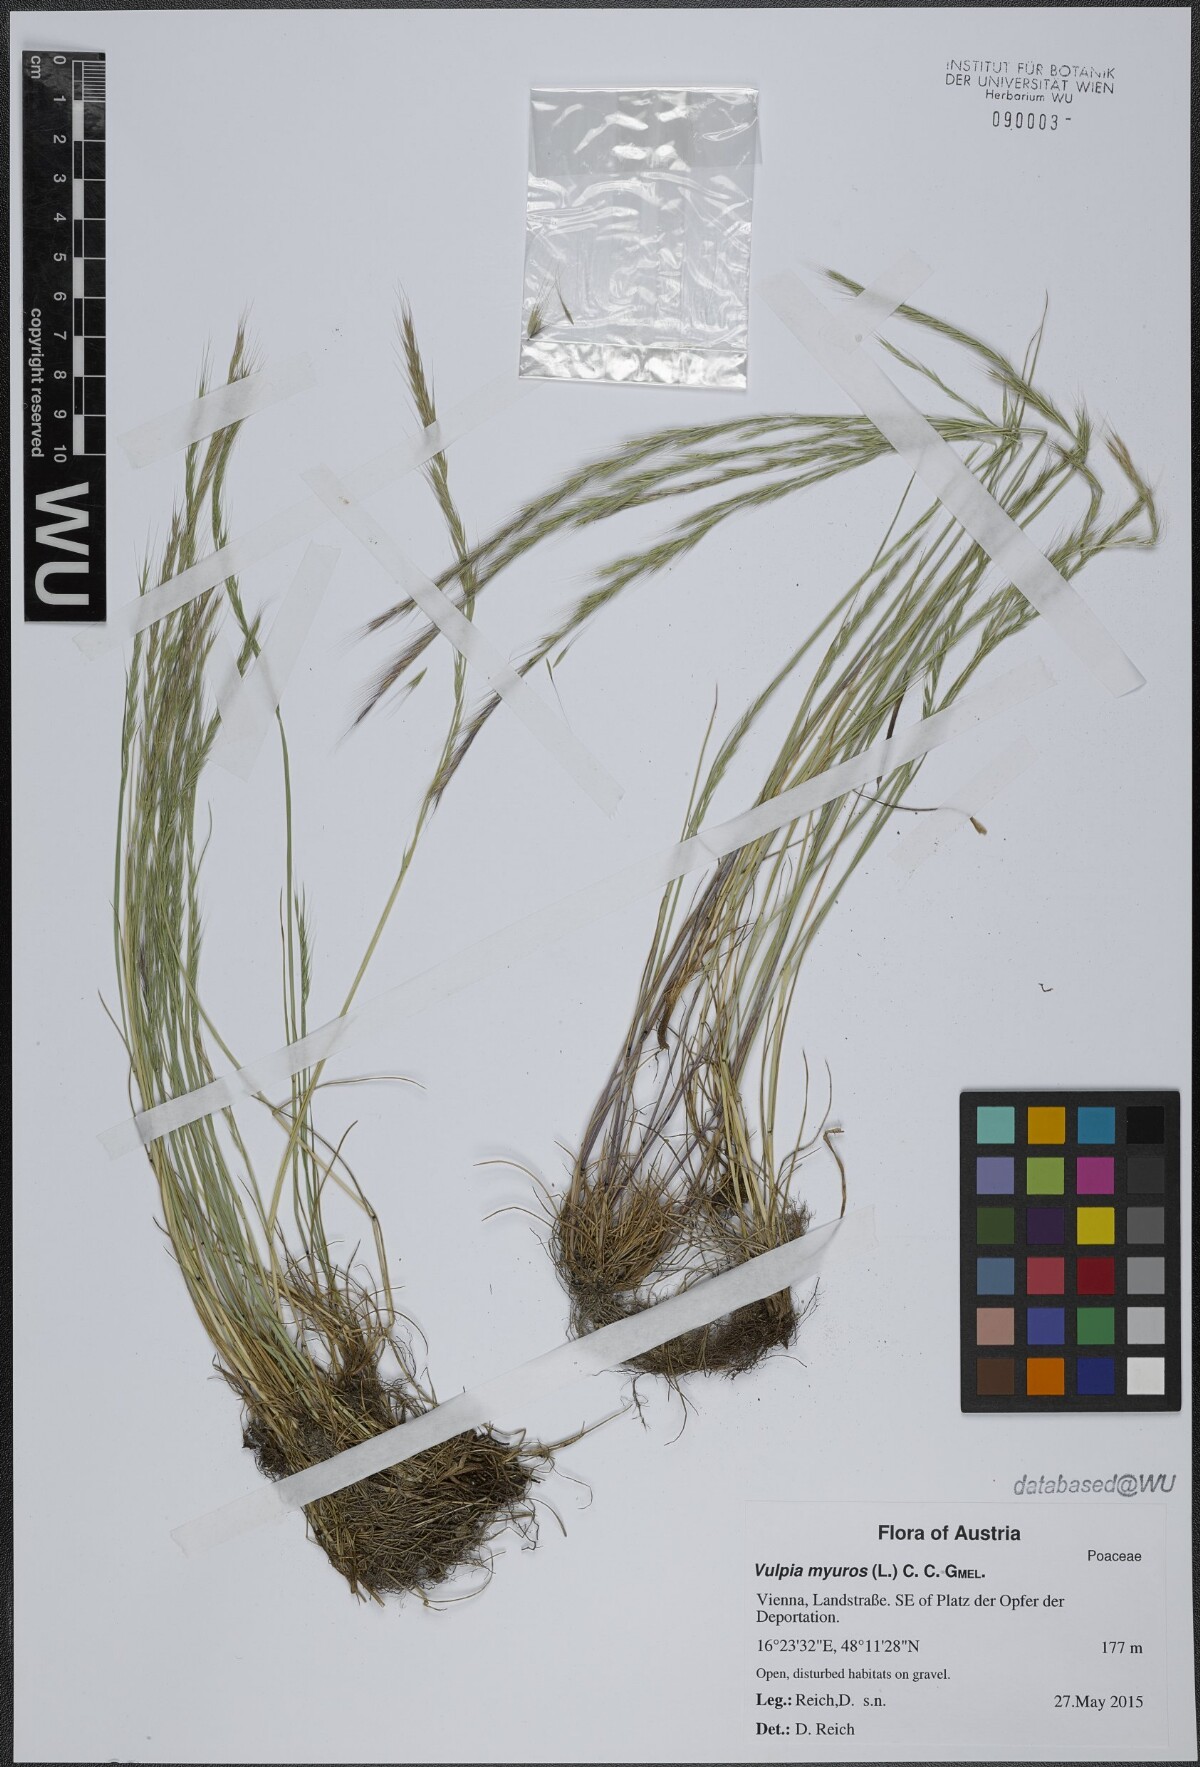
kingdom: Plantae
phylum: Tracheophyta
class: Liliopsida
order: Poales
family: Poaceae
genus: Festuca
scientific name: Festuca myuros
